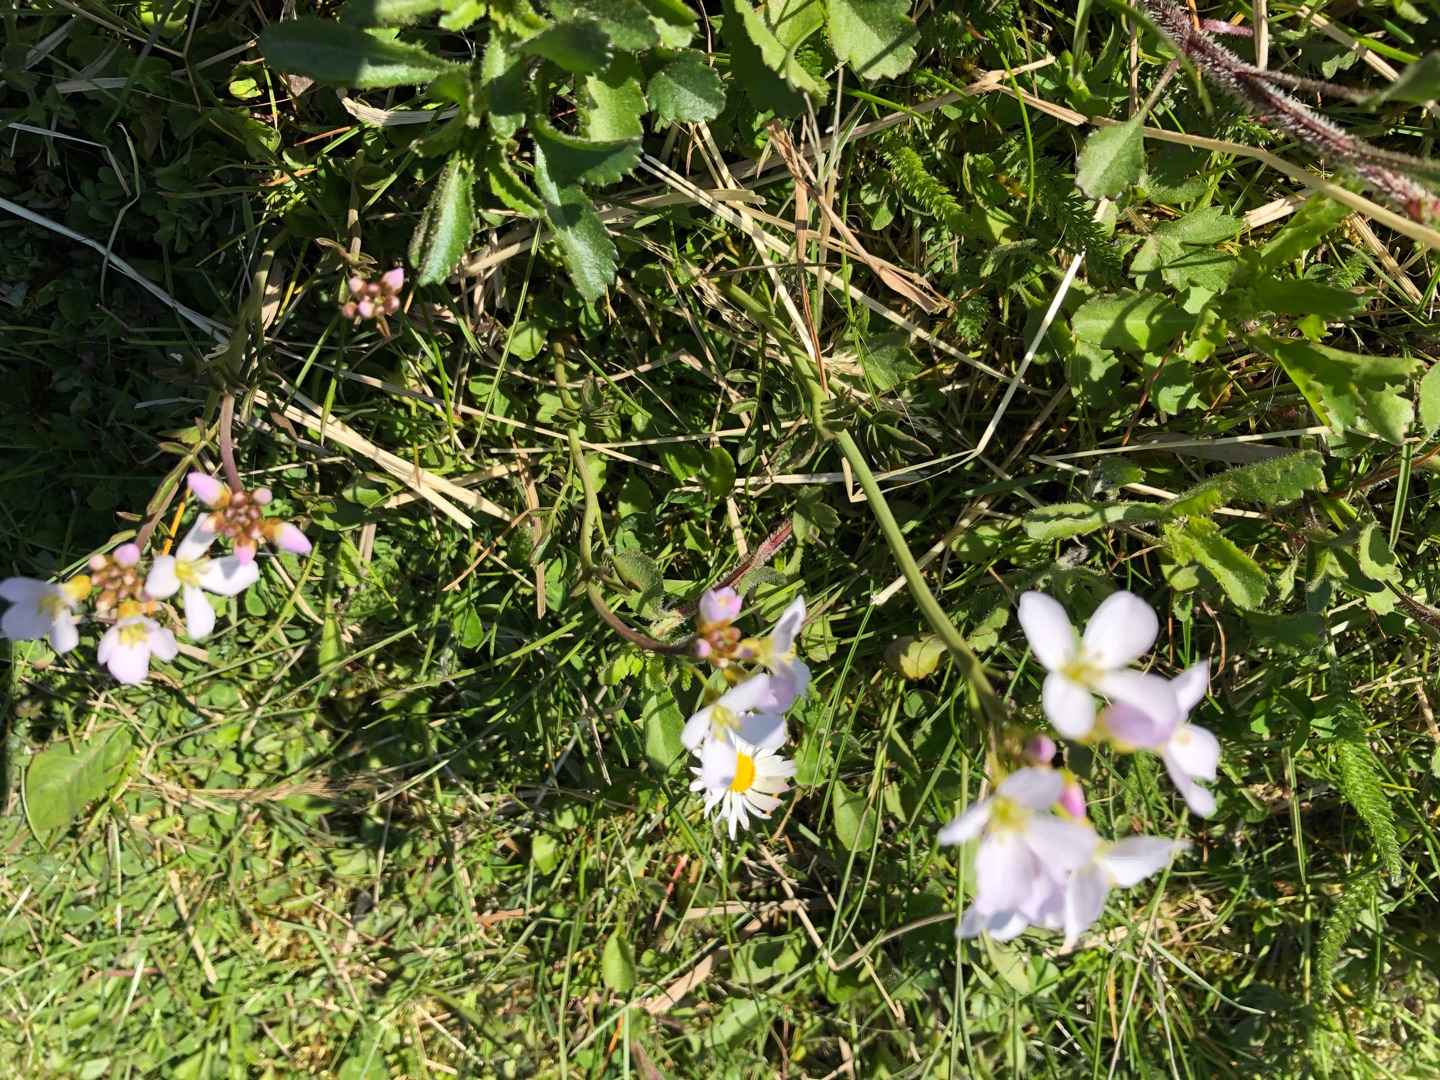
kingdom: Plantae
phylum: Tracheophyta
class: Magnoliopsida
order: Brassicales
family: Brassicaceae
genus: Cardamine
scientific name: Cardamine pratensis
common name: Engkarse
